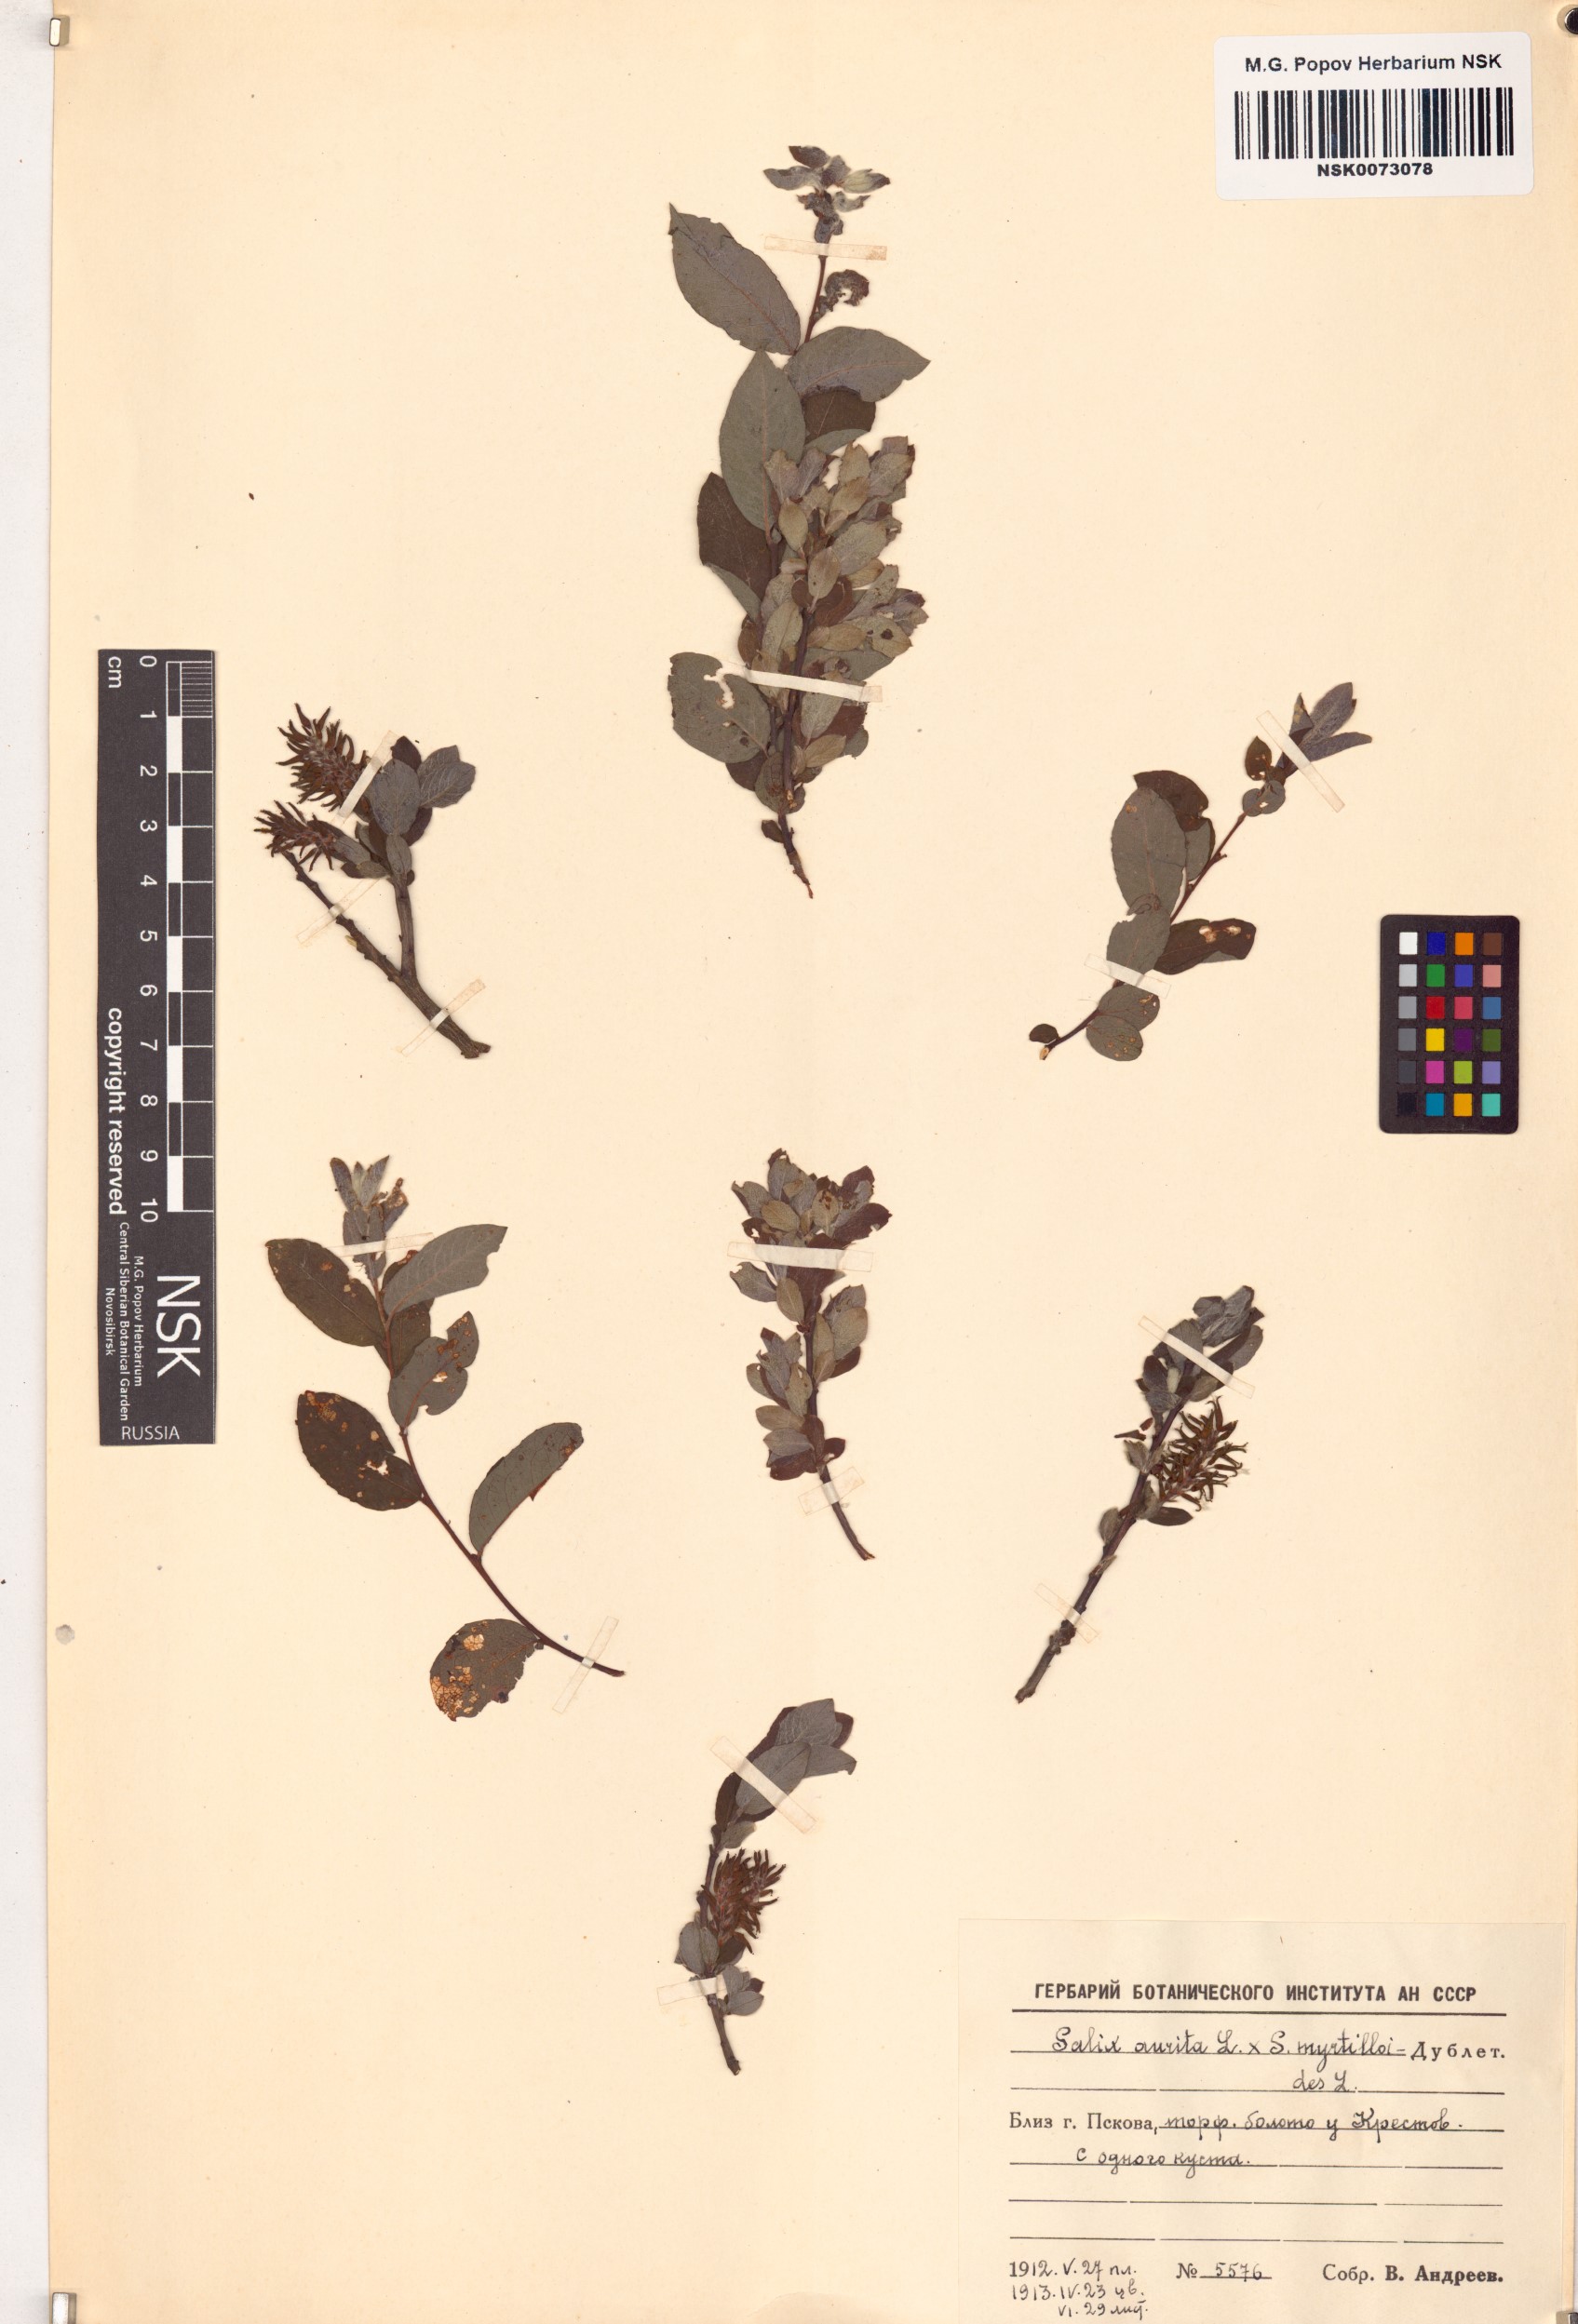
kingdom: Plantae
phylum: Tracheophyta
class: Magnoliopsida
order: Malpighiales
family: Salicaceae
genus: Salix
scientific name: Salix
